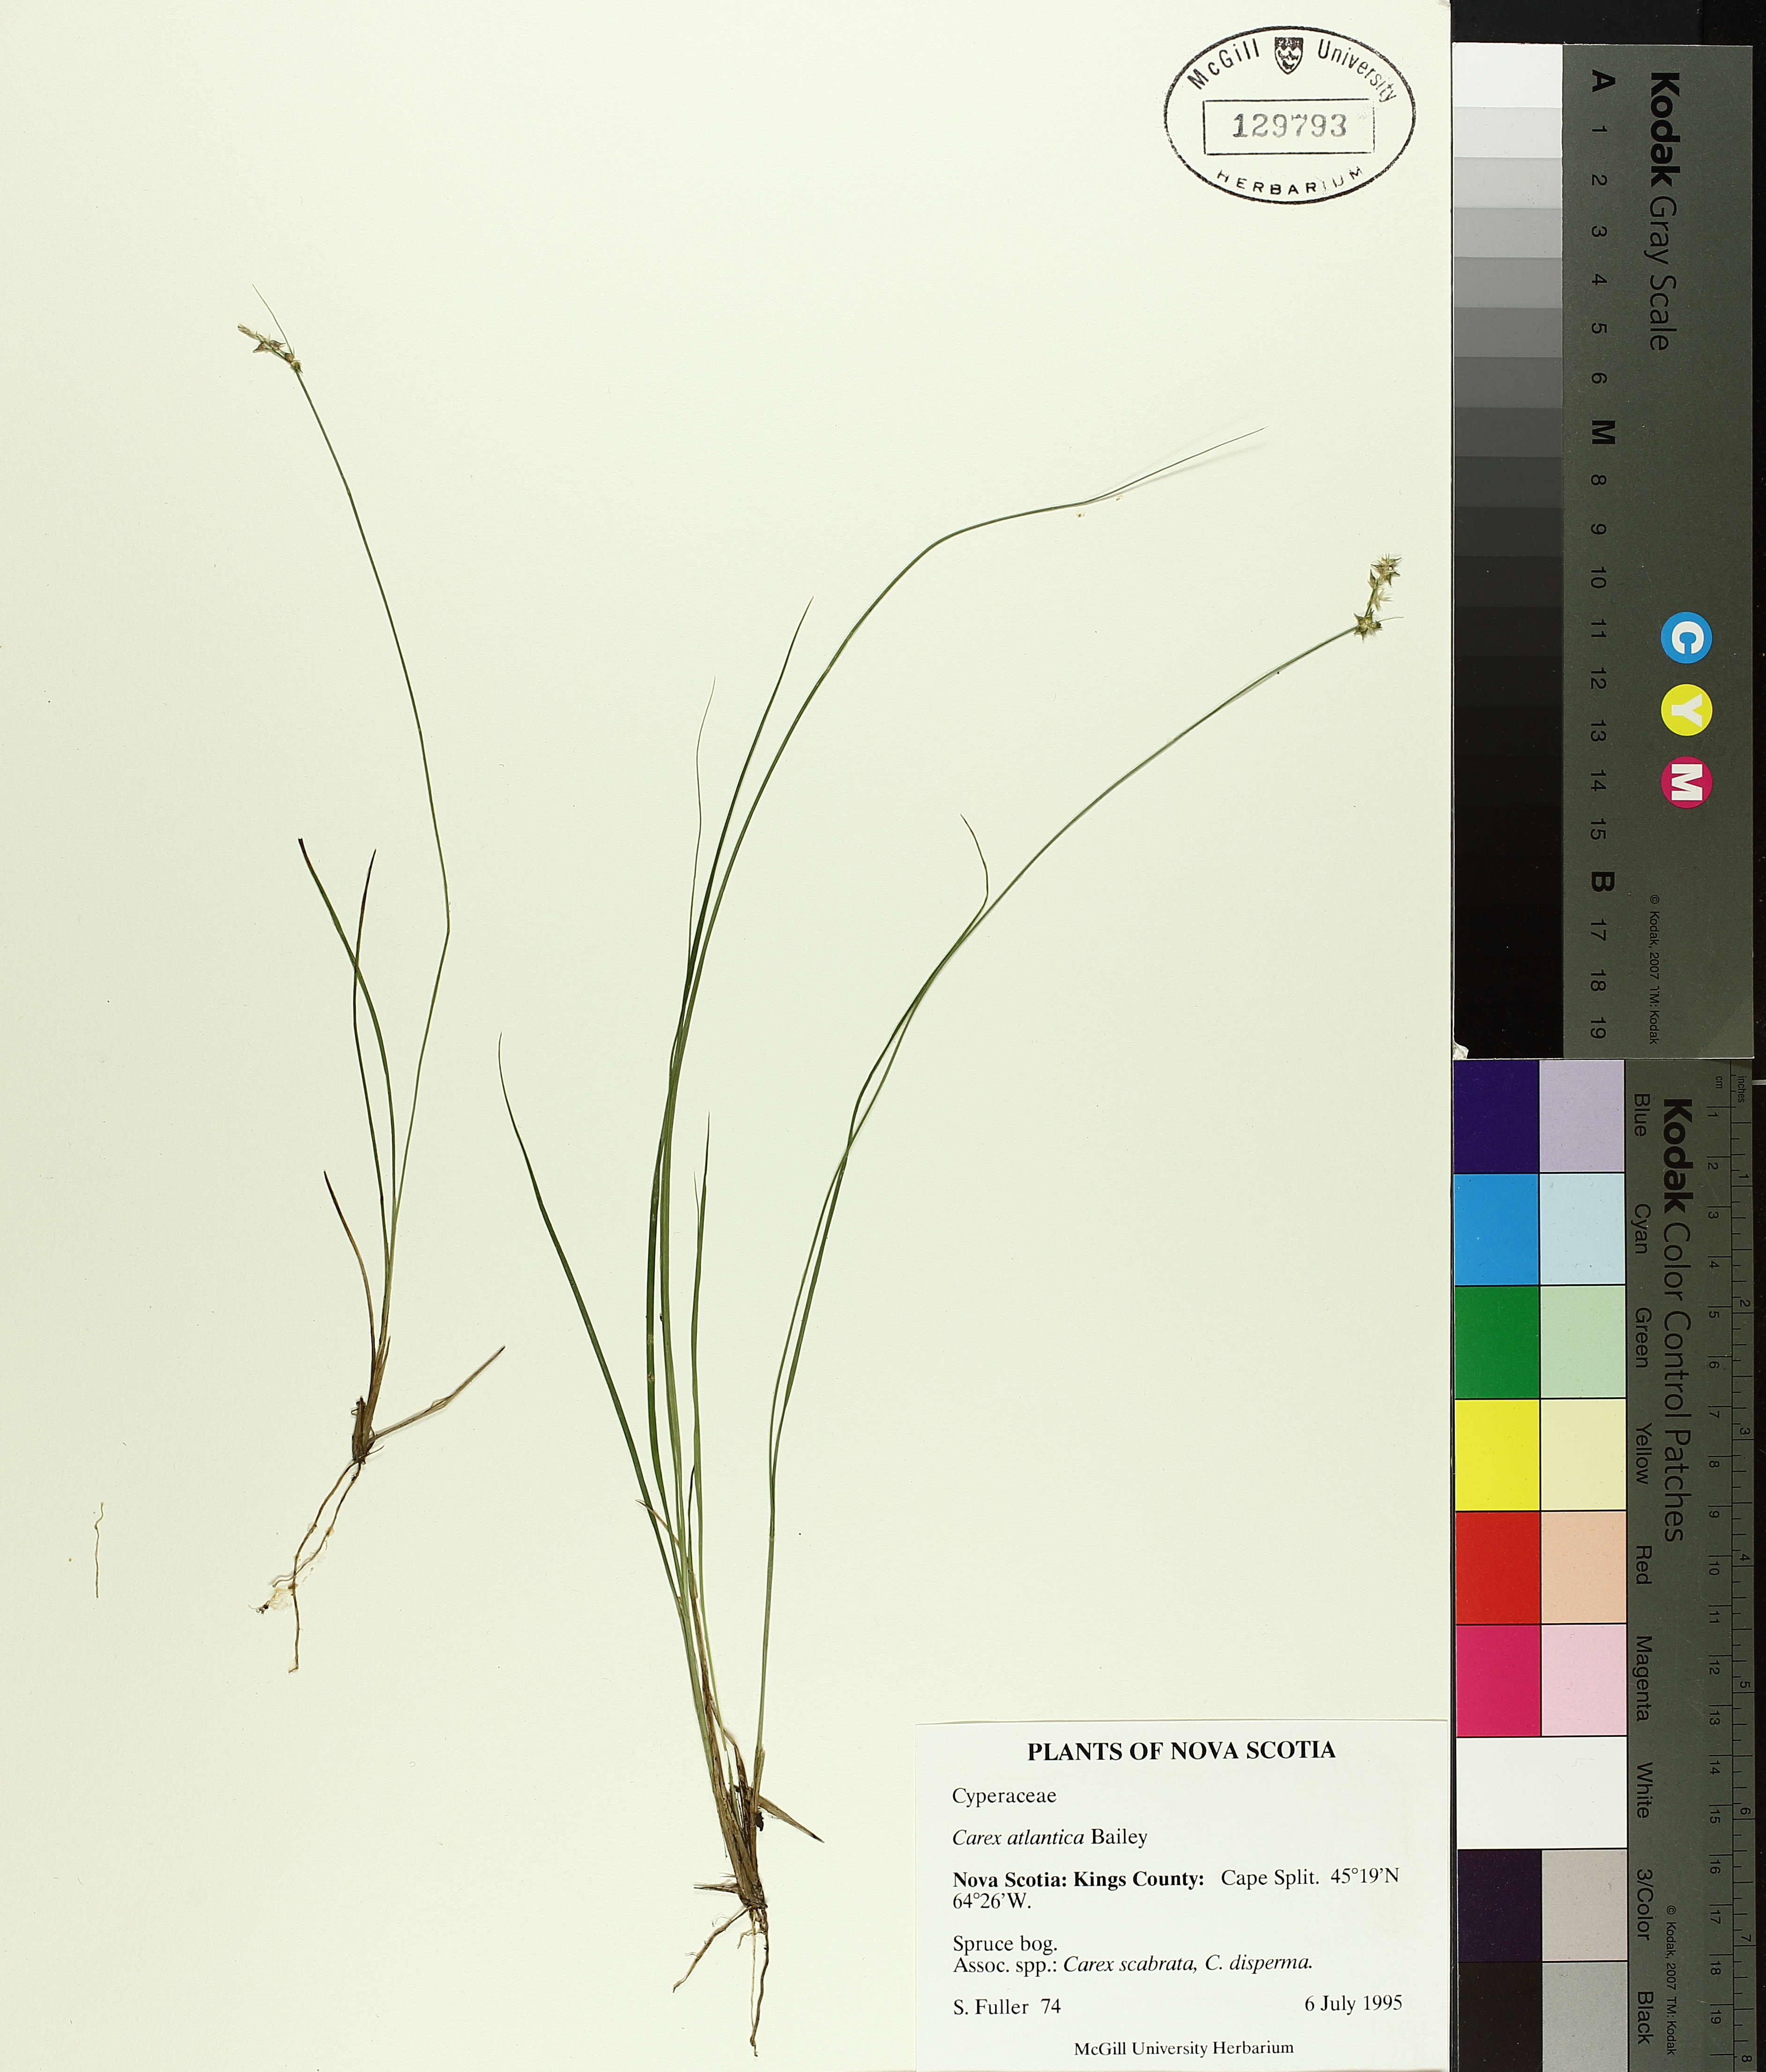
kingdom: Plantae
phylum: Tracheophyta
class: Liliopsida
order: Poales
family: Cyperaceae
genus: Carex
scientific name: Carex atlantica
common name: Atlantic sedge
